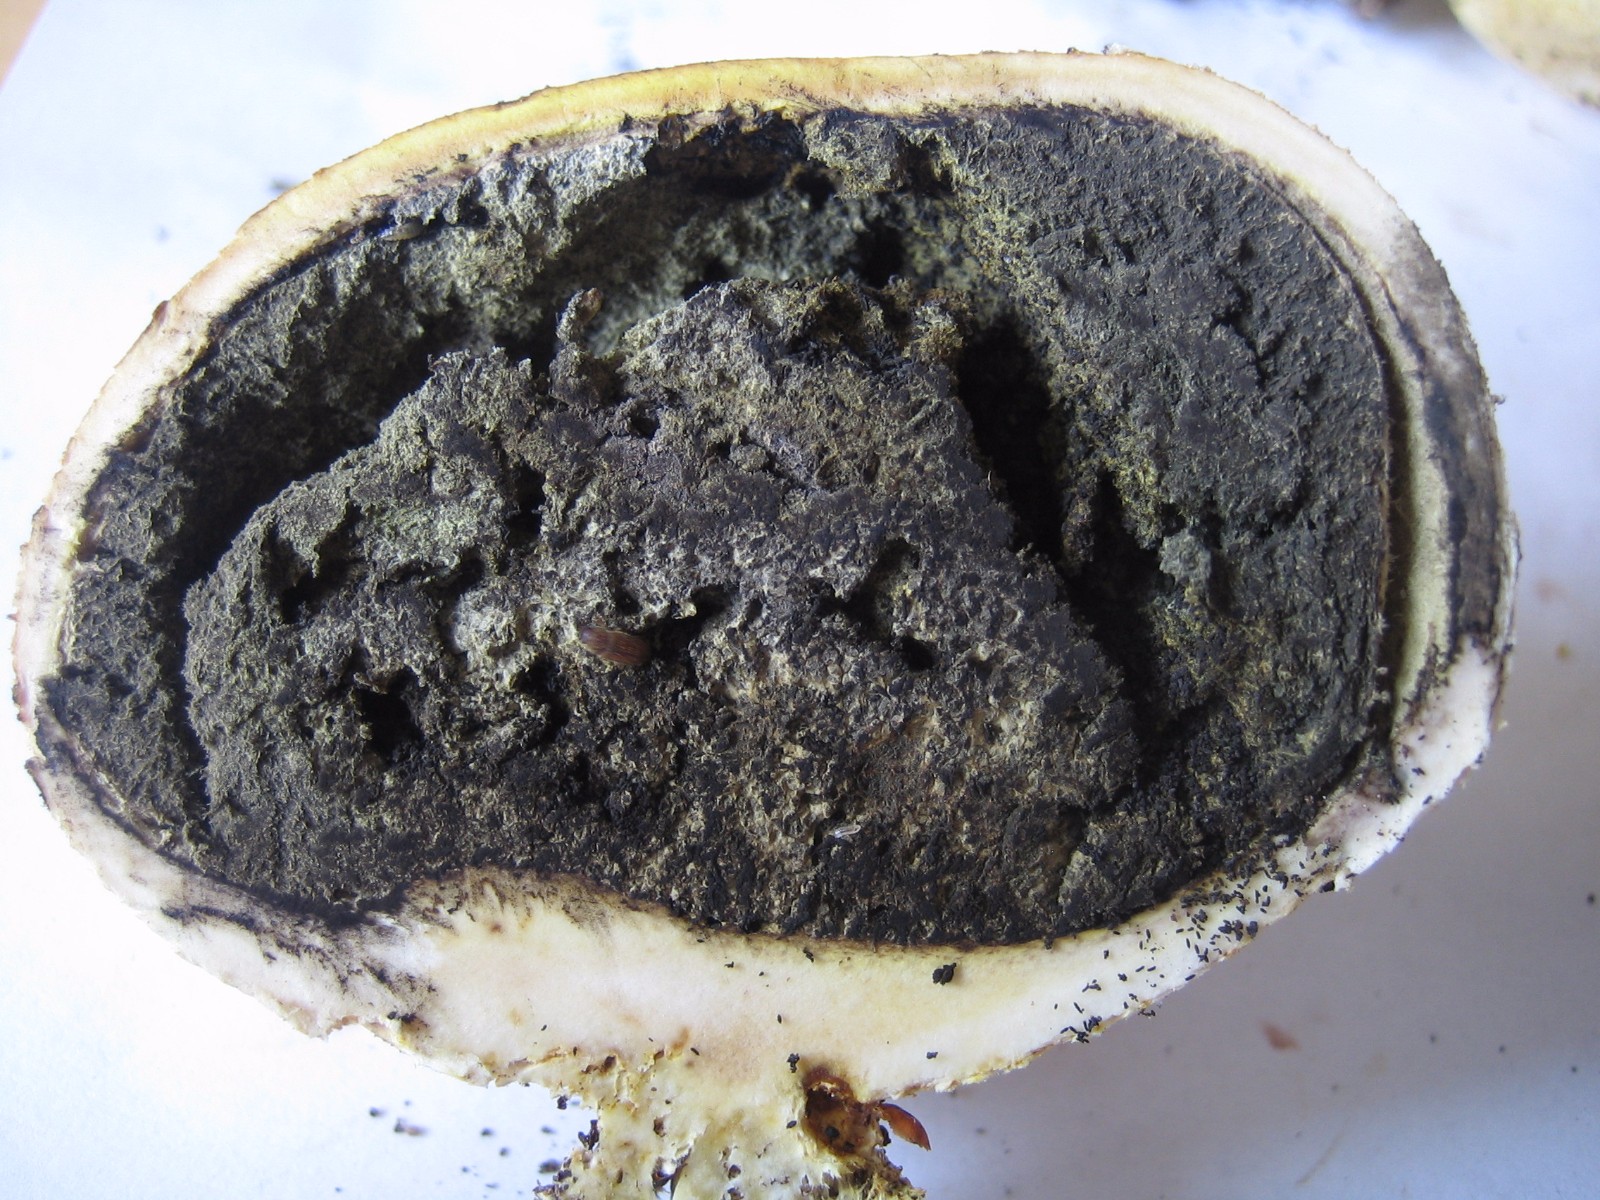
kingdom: Fungi
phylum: Basidiomycota
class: Agaricomycetes
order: Boletales
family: Sclerodermataceae
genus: Scleroderma
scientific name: Scleroderma citrinum
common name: almindelig bruskbold
